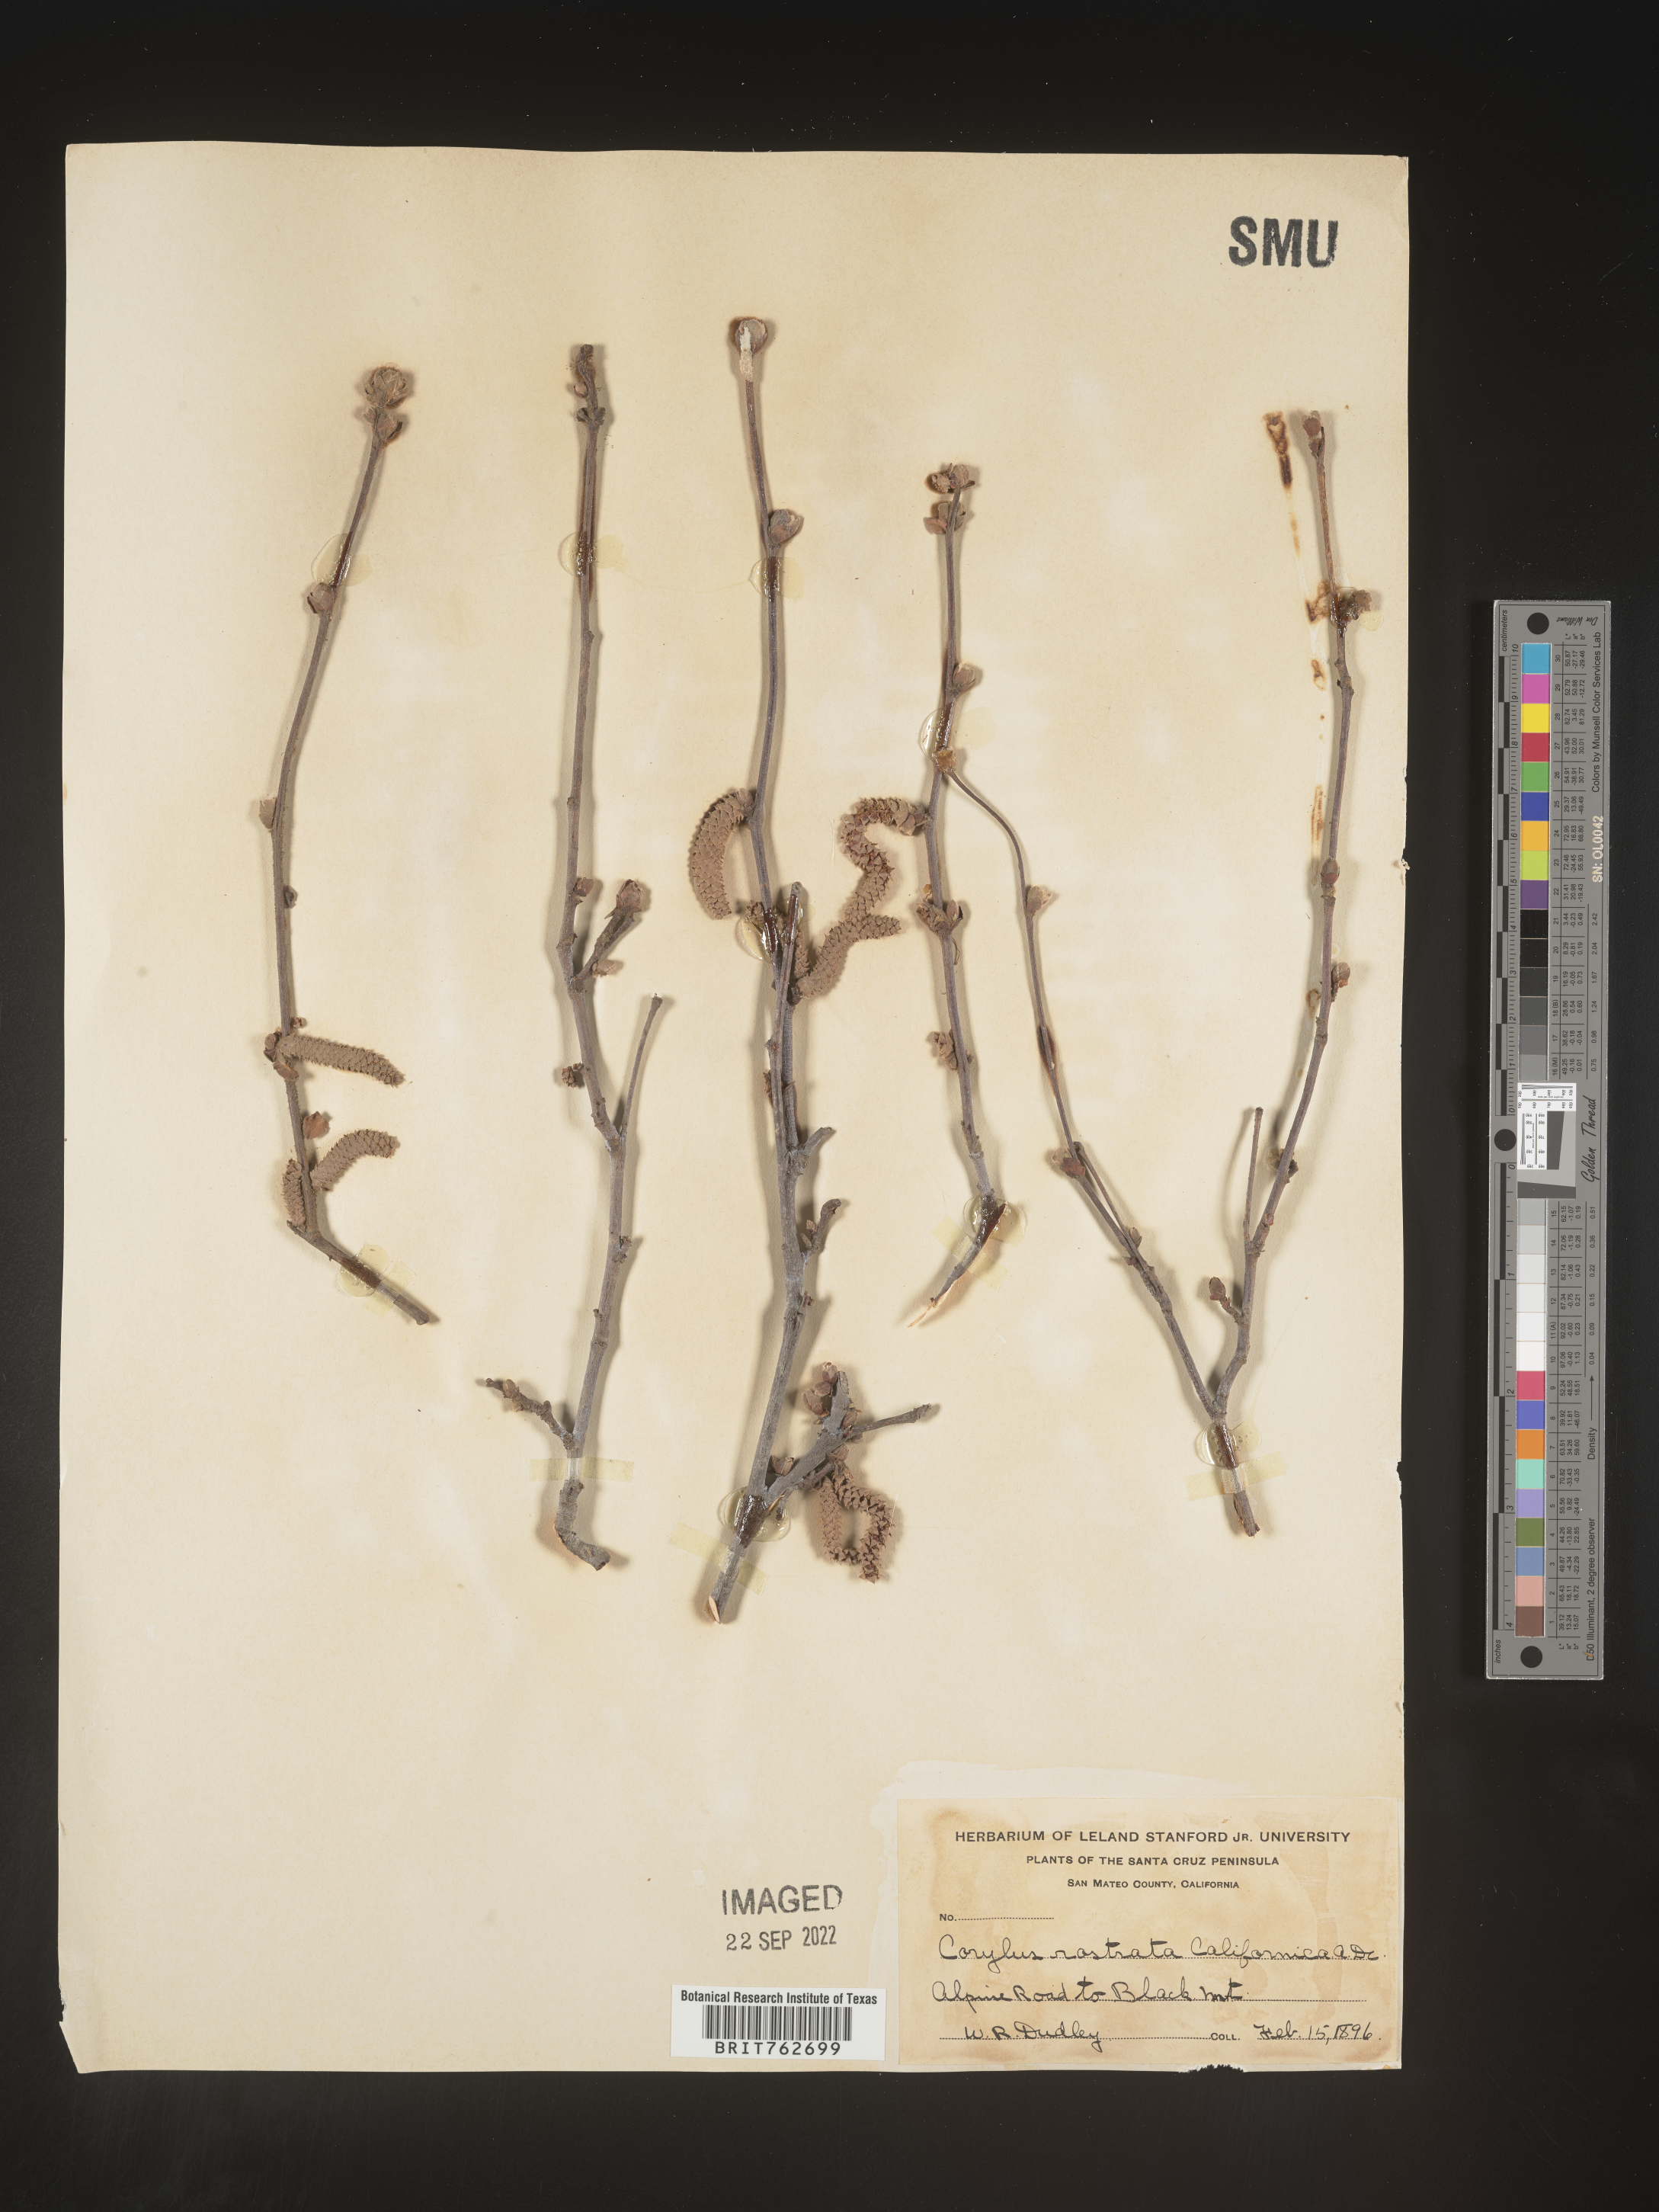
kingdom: Plantae
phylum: Tracheophyta
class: Magnoliopsida
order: Fagales
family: Betulaceae
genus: Corylus
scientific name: Corylus cornuta
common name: Beaked hazel
